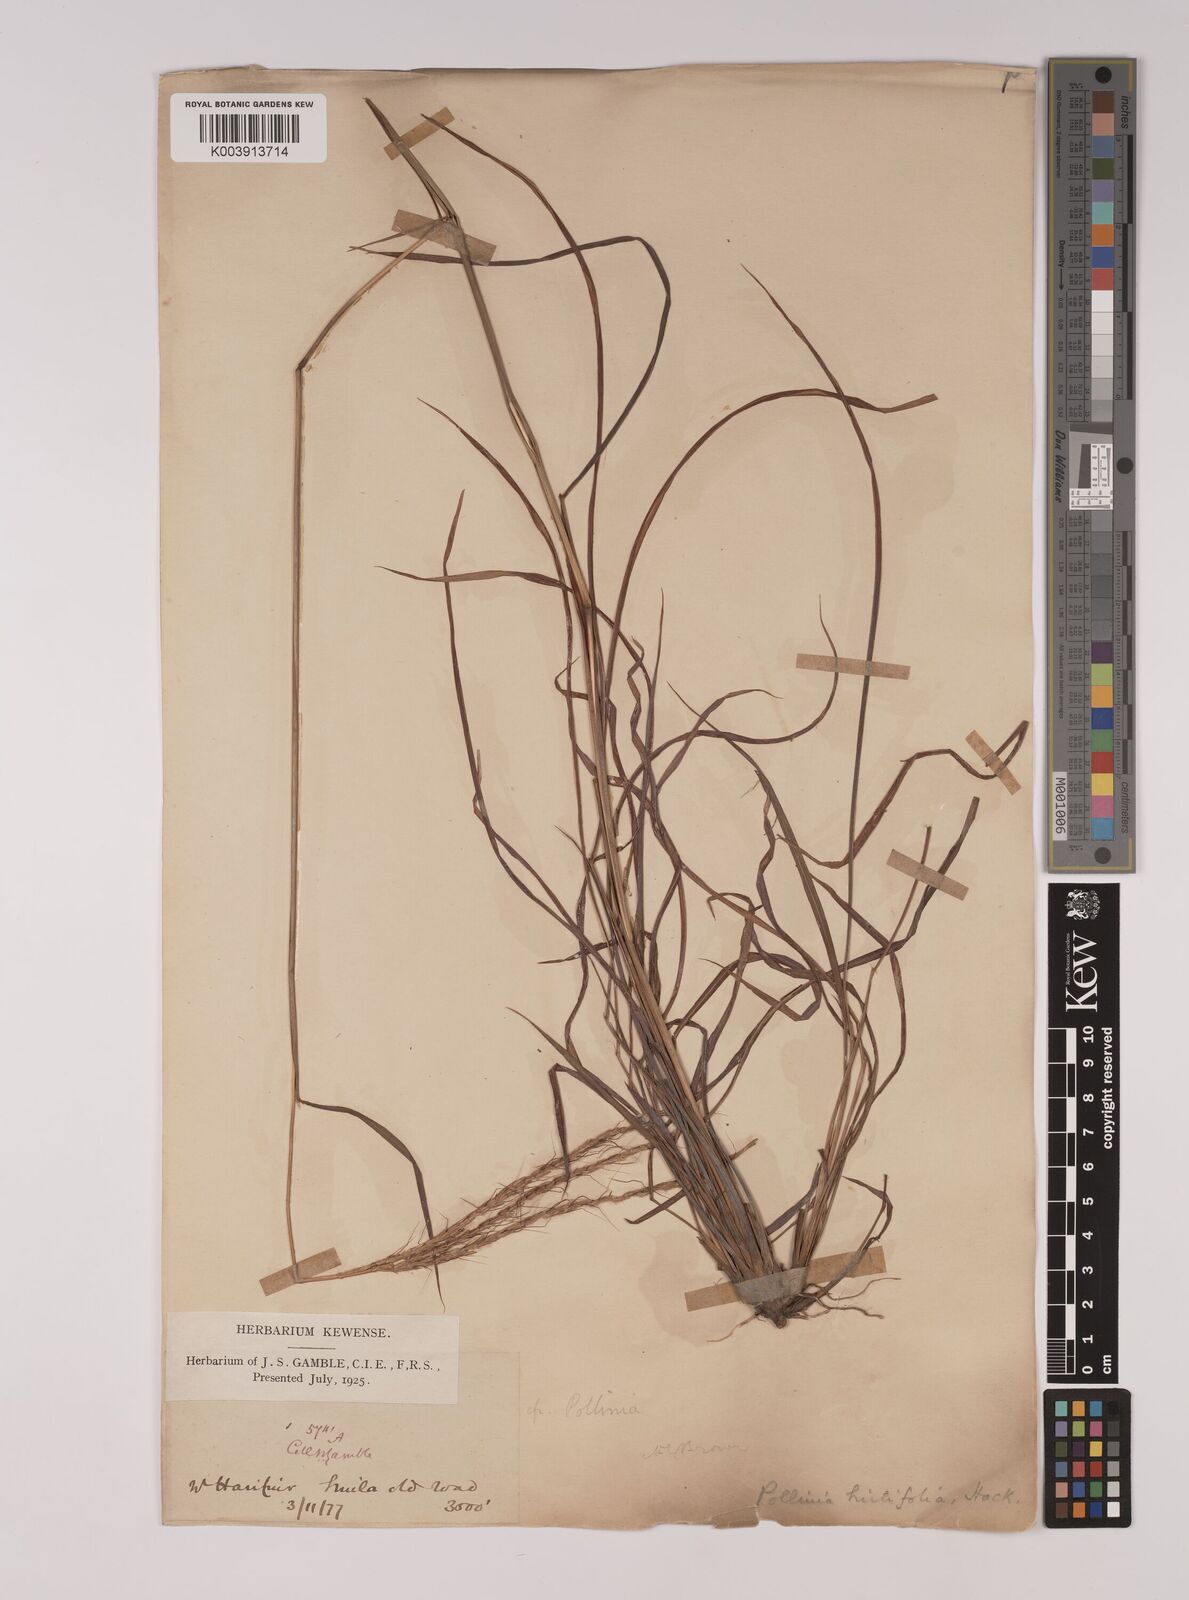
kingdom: Plantae
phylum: Tracheophyta
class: Liliopsida
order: Poales
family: Poaceae
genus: Eulalia
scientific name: Eulalia hirtifolia
